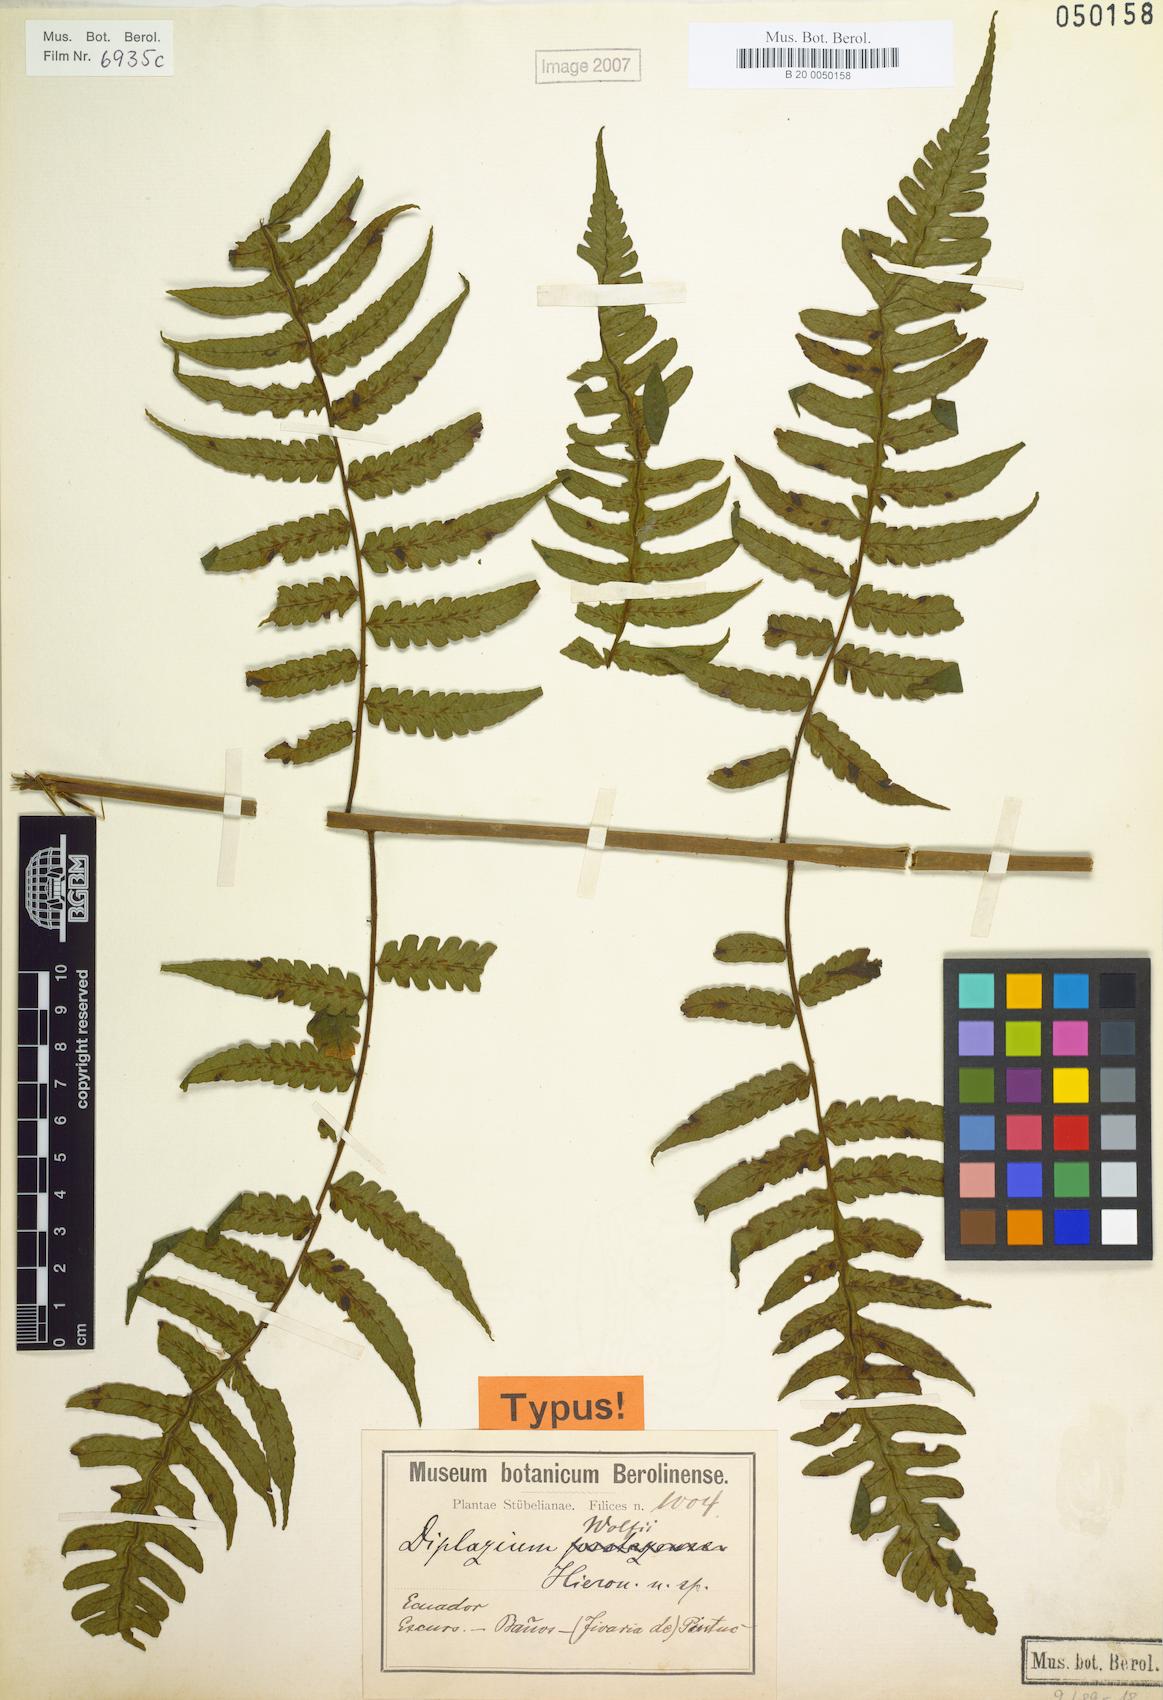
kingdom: Plantae
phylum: Tracheophyta
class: Polypodiopsida
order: Polypodiales
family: Athyriaceae
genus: Diplazium
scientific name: Diplazium wolfii
